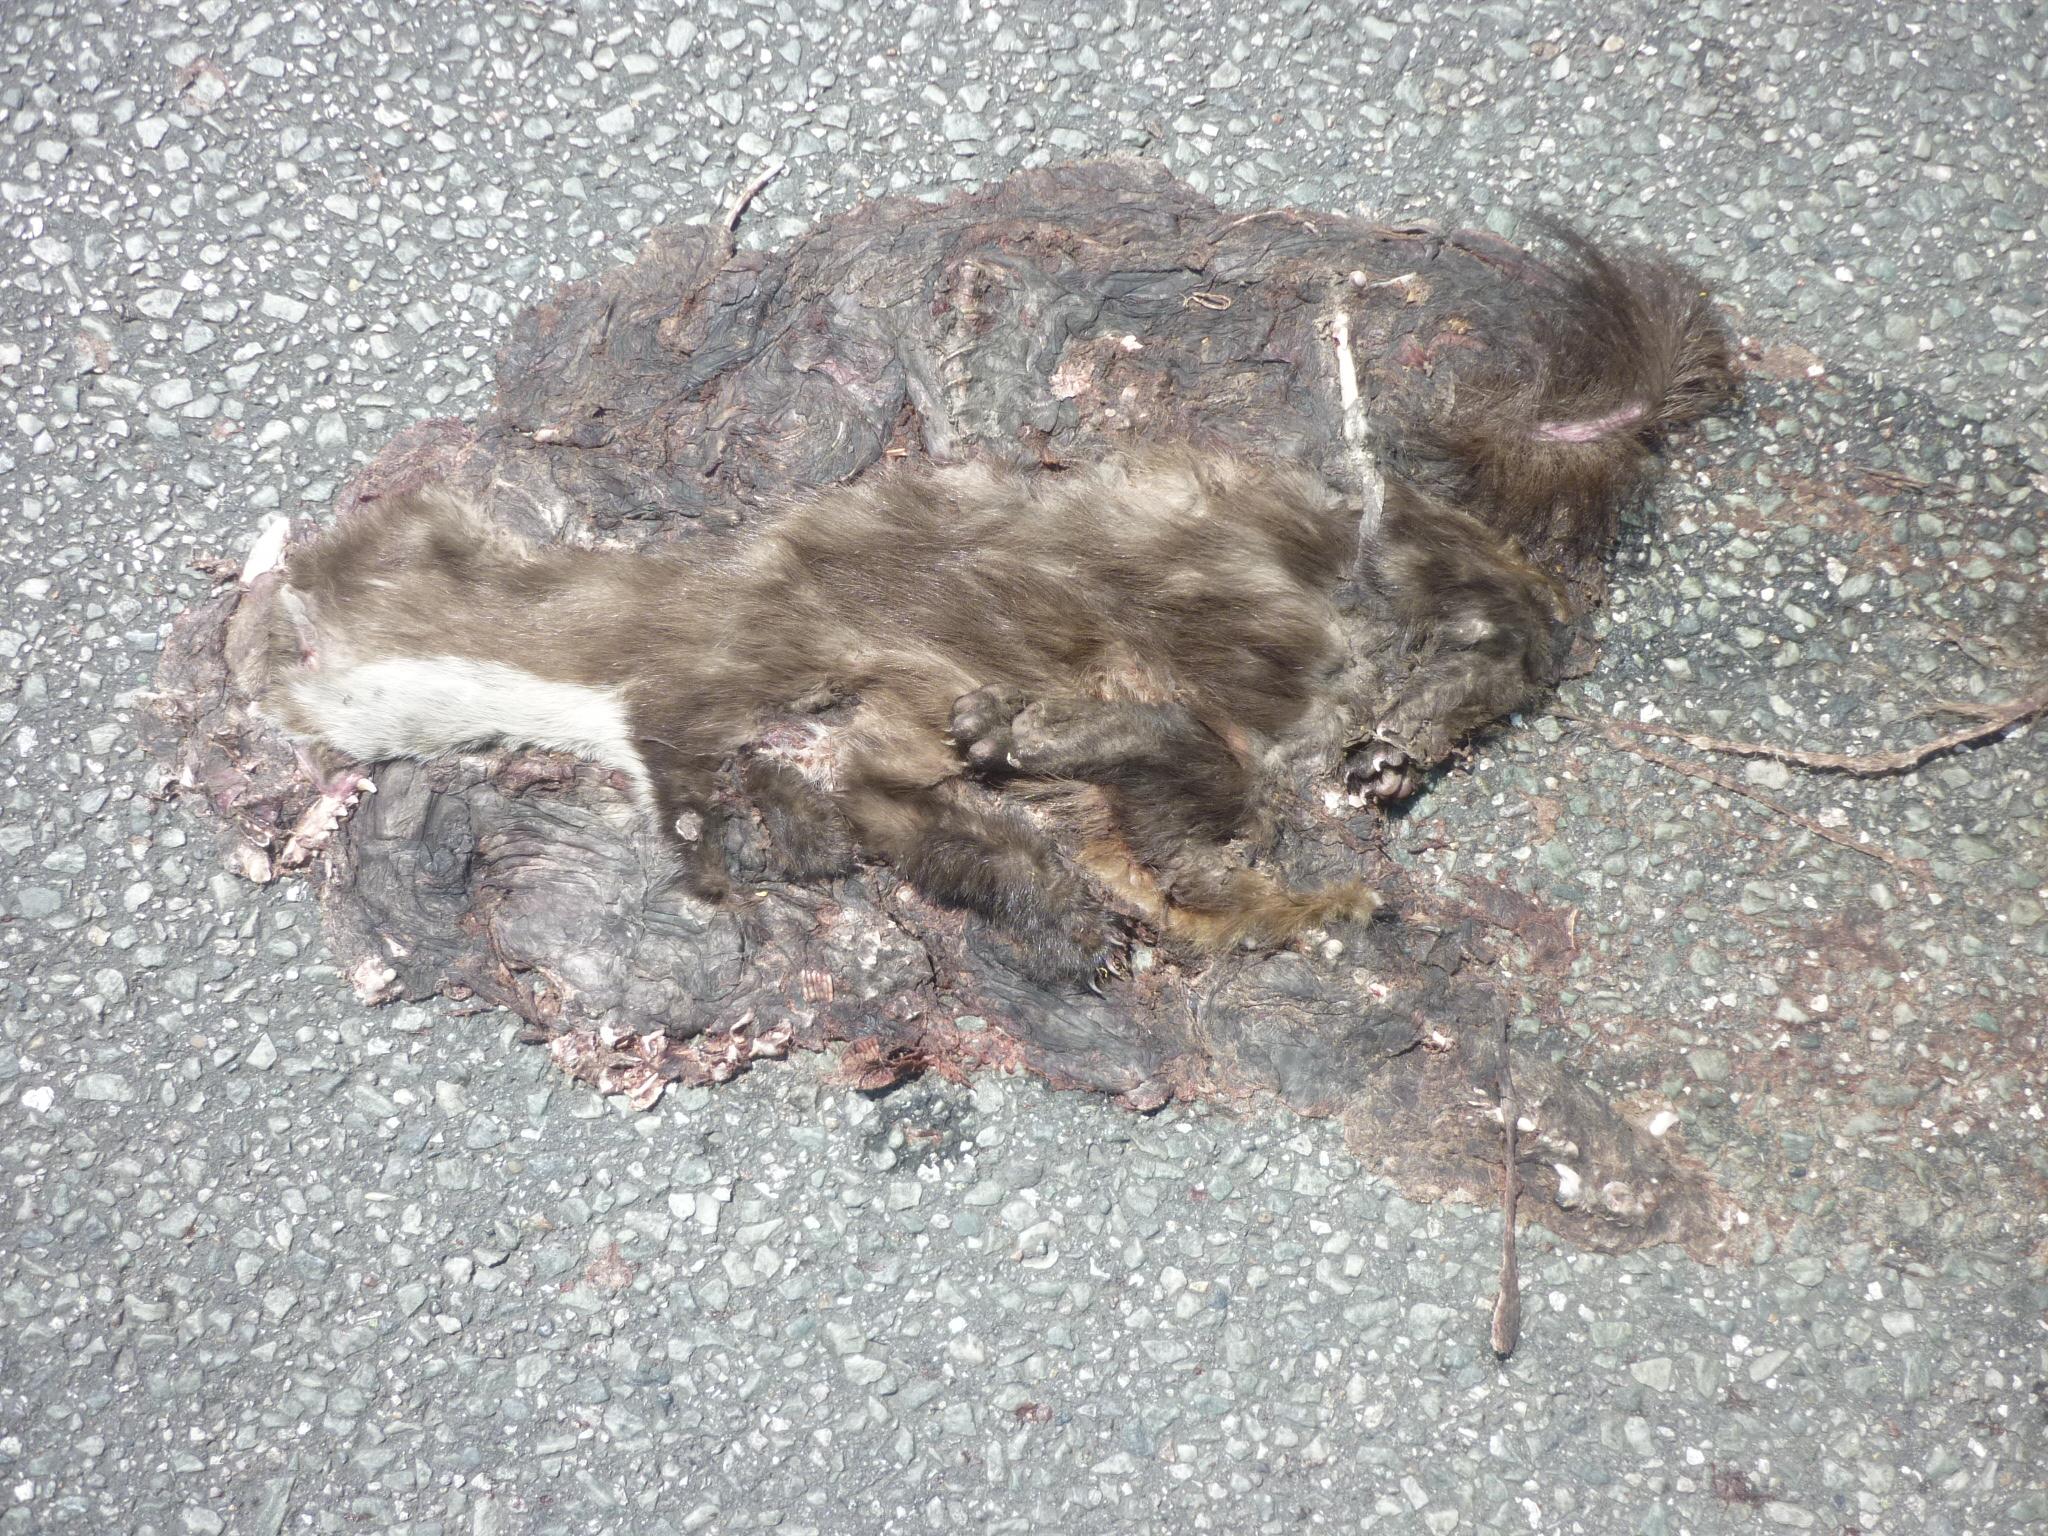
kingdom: Animalia
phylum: Chordata
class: Mammalia
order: Carnivora
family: Mustelidae
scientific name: Mustelidae
